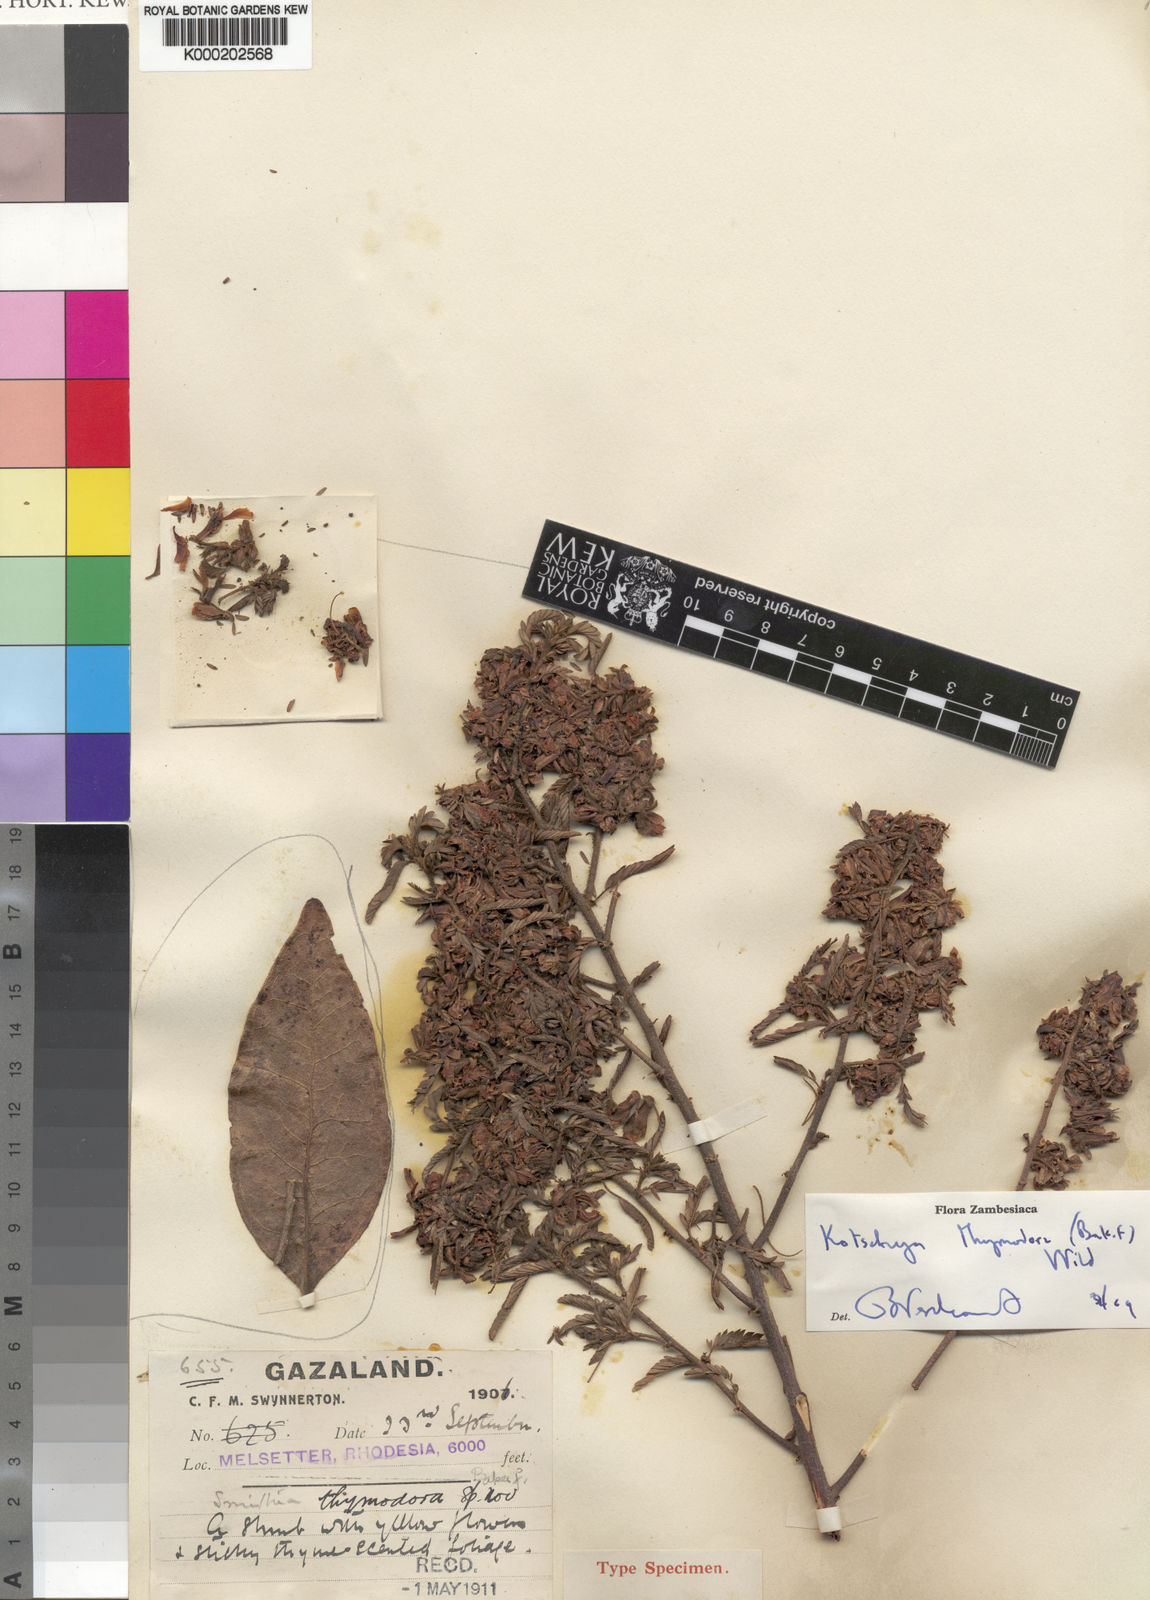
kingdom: Plantae
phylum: Tracheophyta
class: Magnoliopsida
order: Fabales
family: Fabaceae
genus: Kotschya
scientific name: Kotschya thymodora
